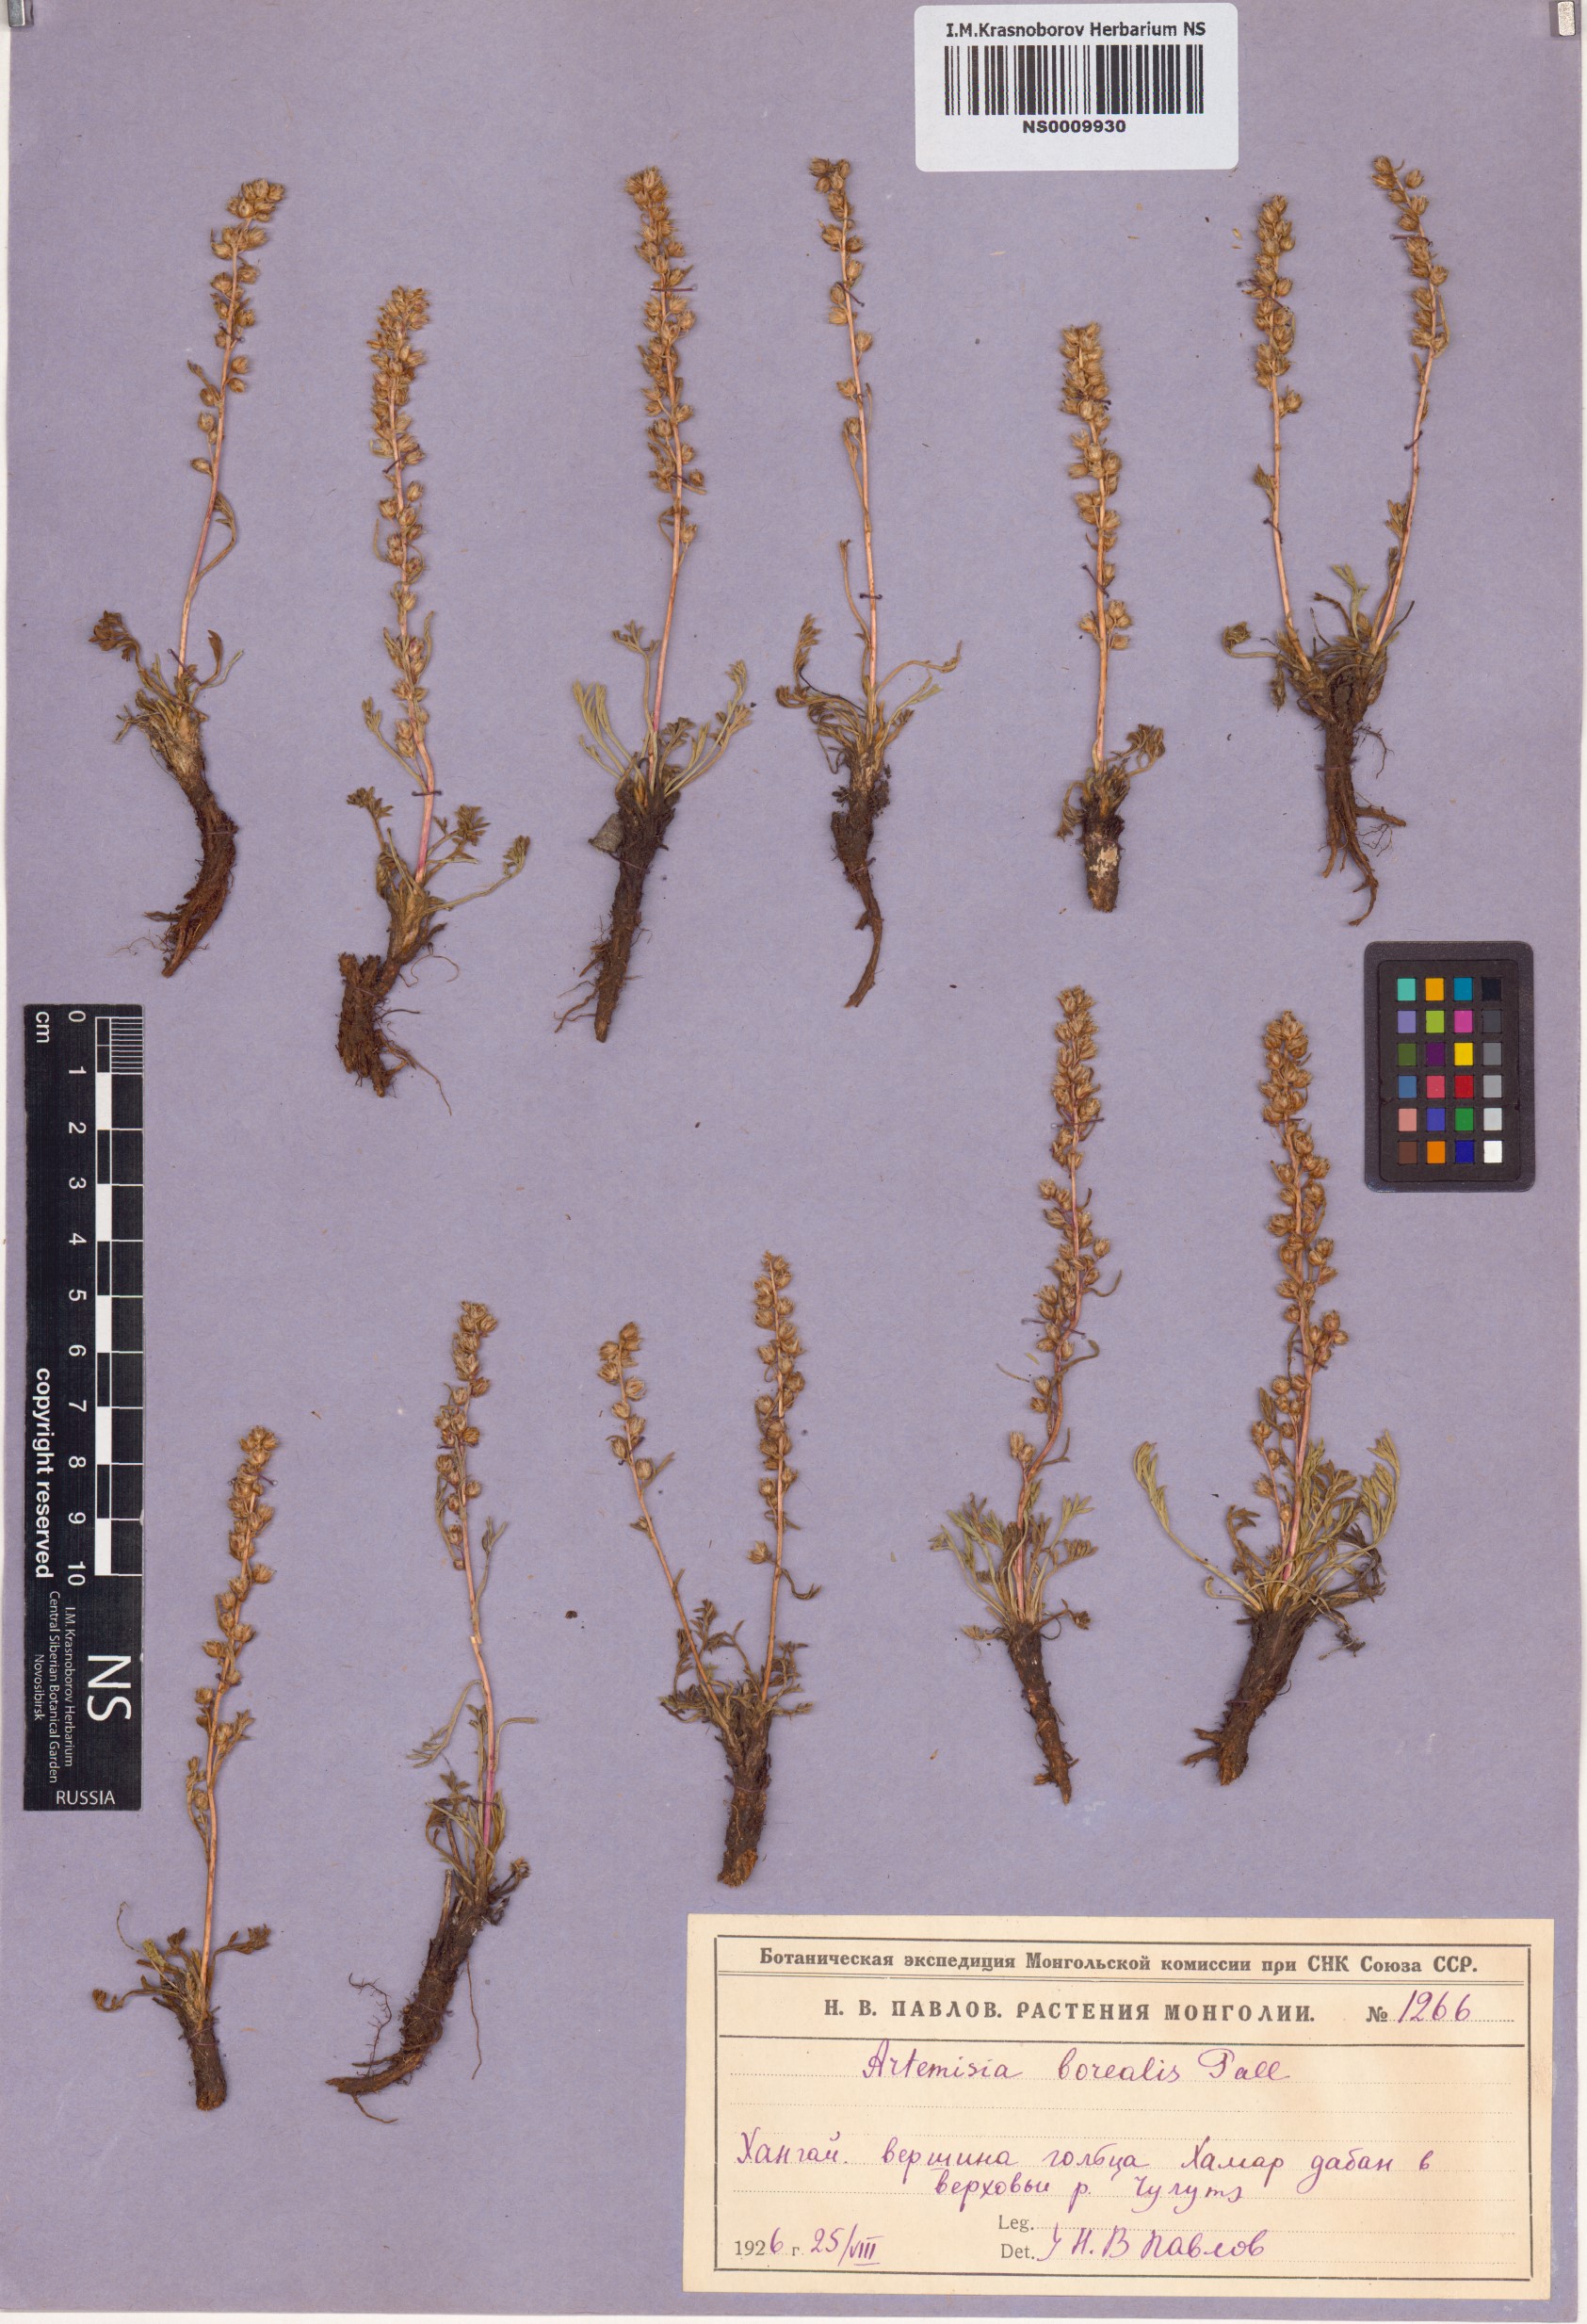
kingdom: Plantae
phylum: Tracheophyta
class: Magnoliopsida
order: Asterales
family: Asteraceae
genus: Artemisia
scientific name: Artemisia borealis
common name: Boreal sage
